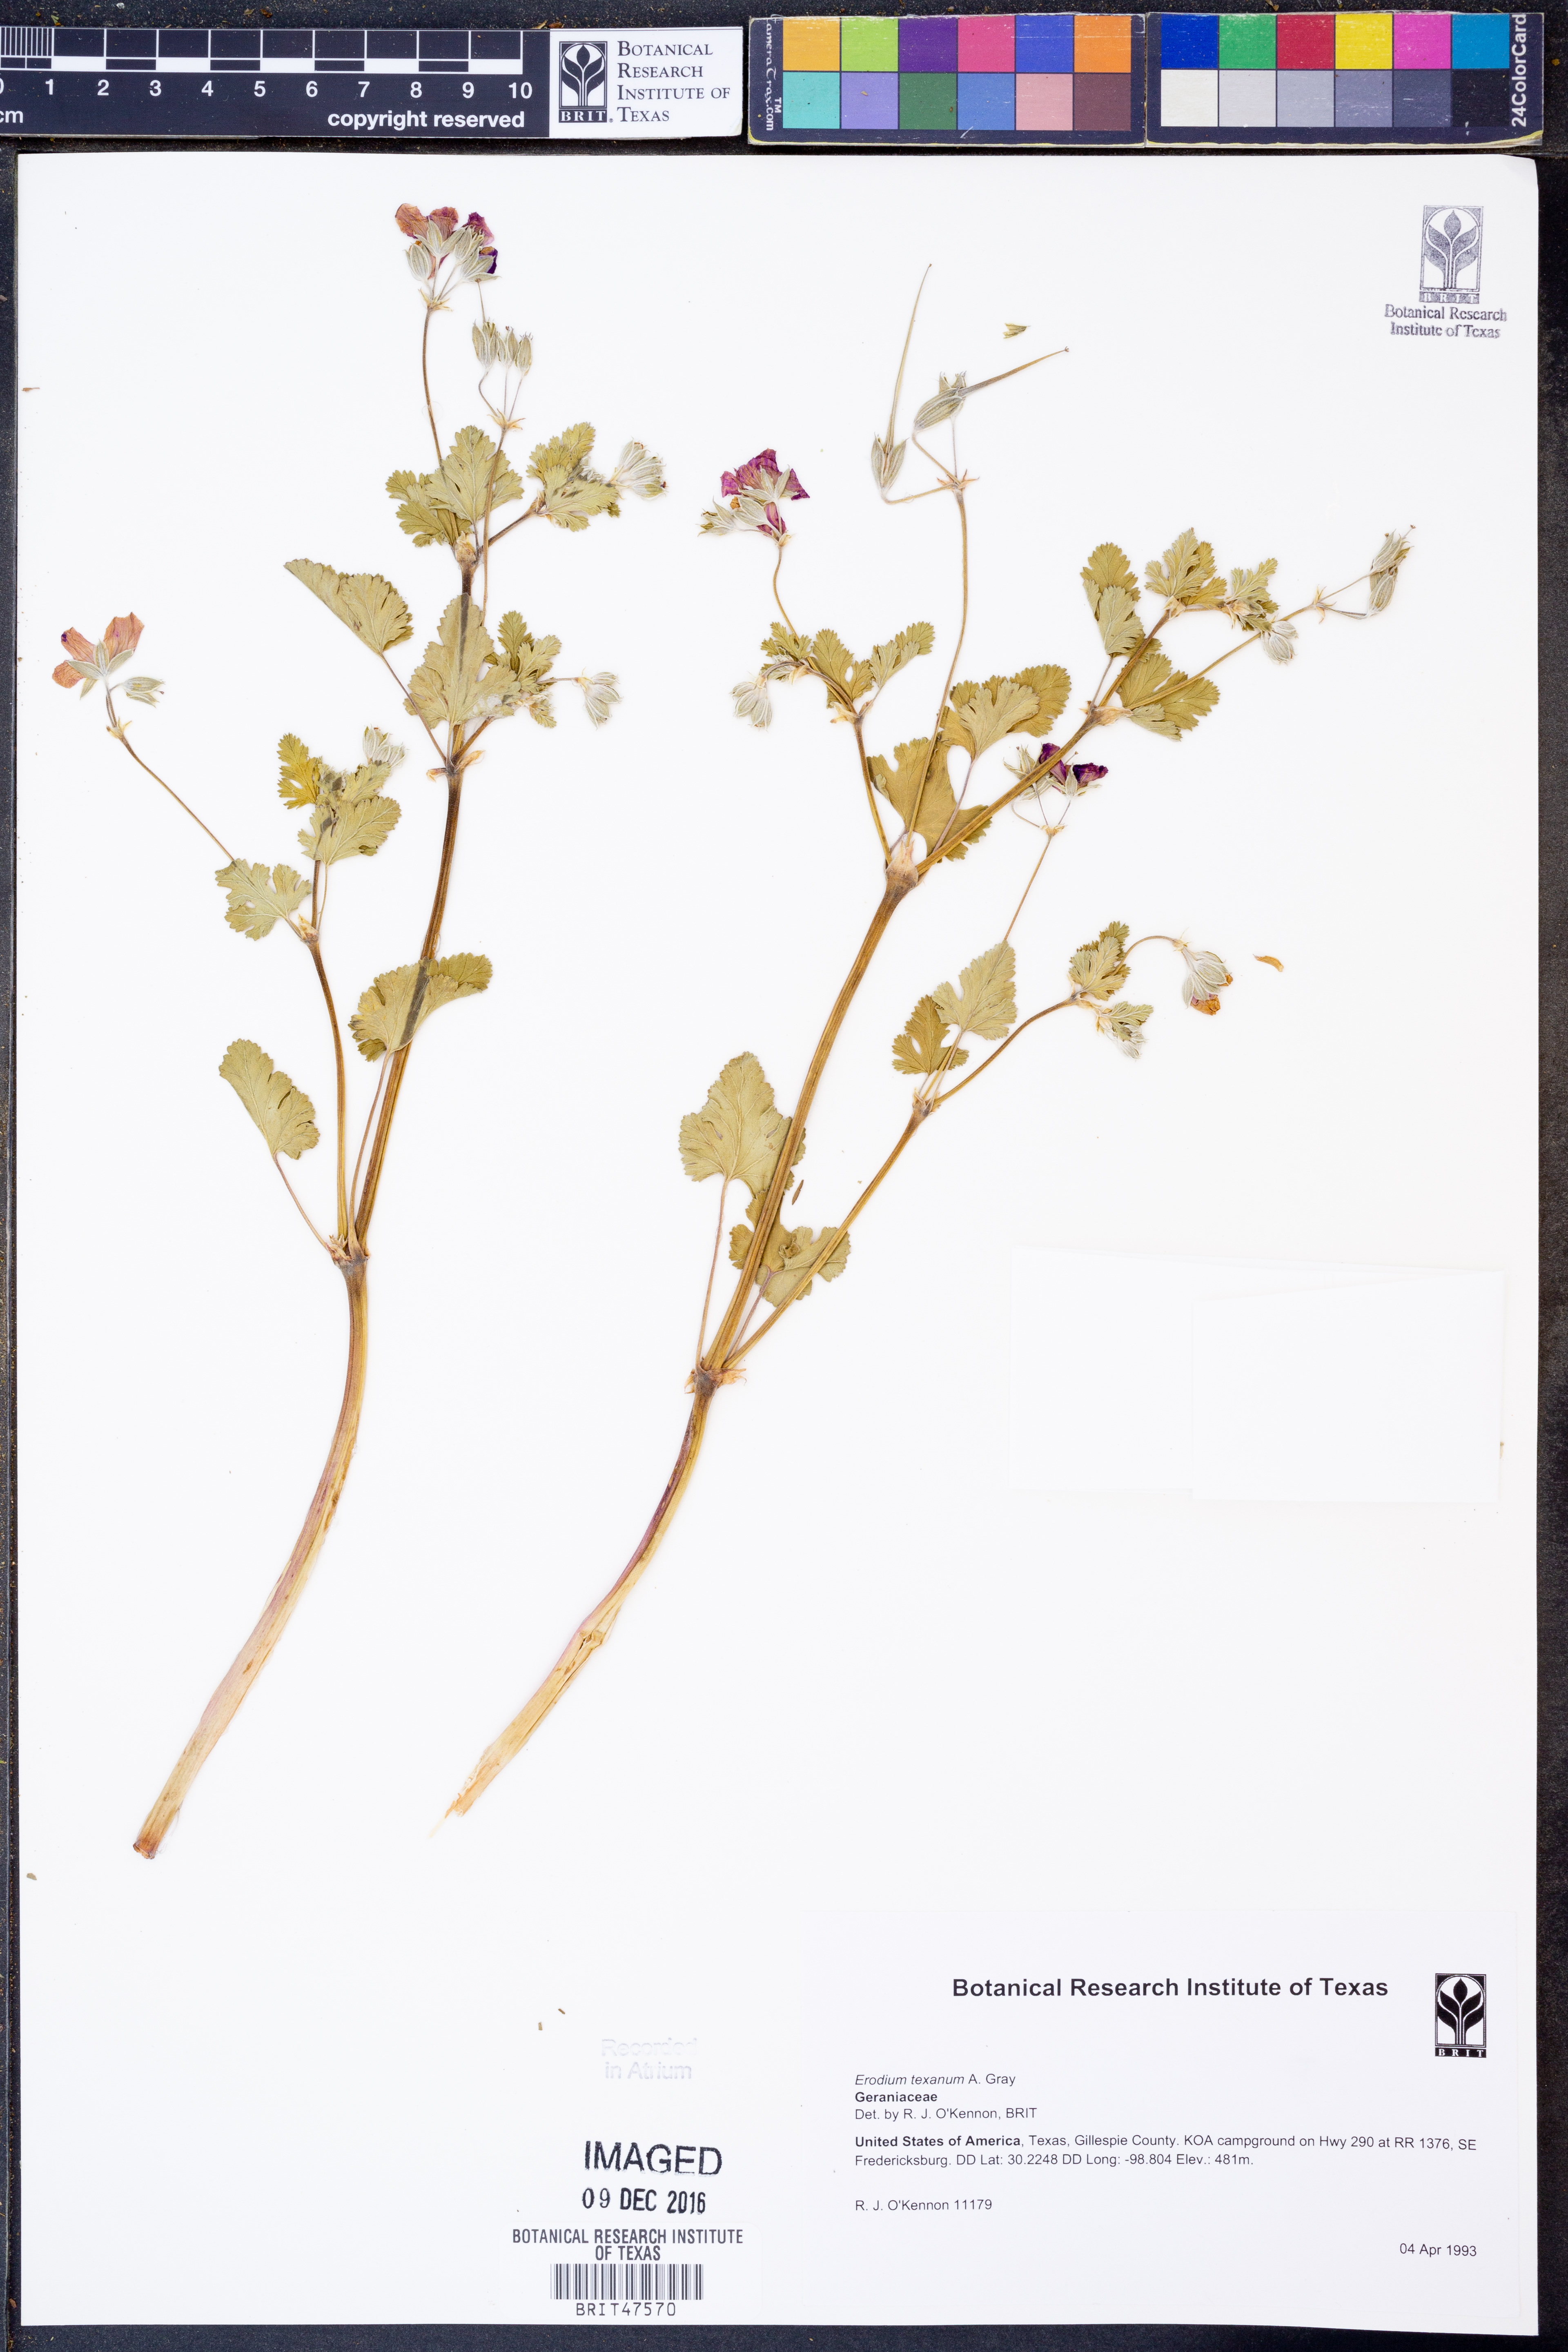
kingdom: Plantae
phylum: Tracheophyta
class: Magnoliopsida
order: Geraniales
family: Geraniaceae
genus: Erodium
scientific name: Erodium texanum
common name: Texas stork's-bill
